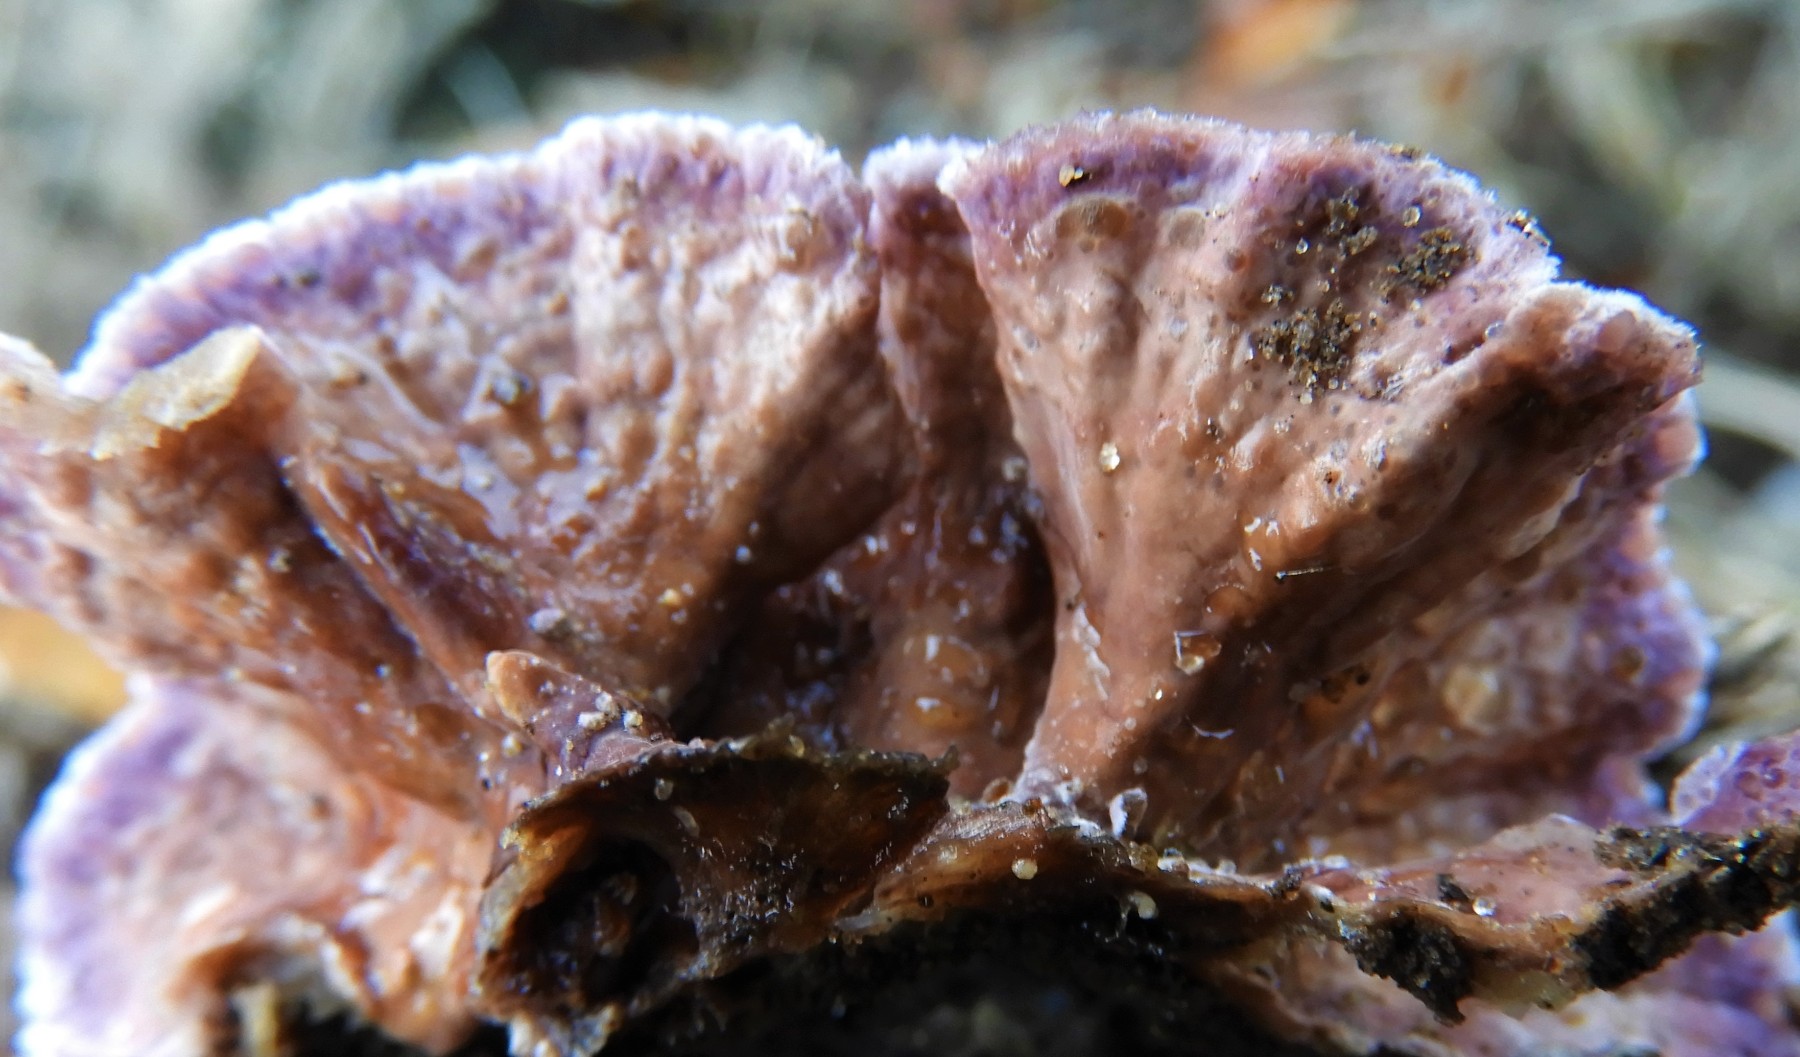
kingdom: Fungi
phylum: Basidiomycota
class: Agaricomycetes
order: Agaricales
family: Cyphellaceae
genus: Chondrostereum
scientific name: Chondrostereum purpureum
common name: purpurlædersvamp
